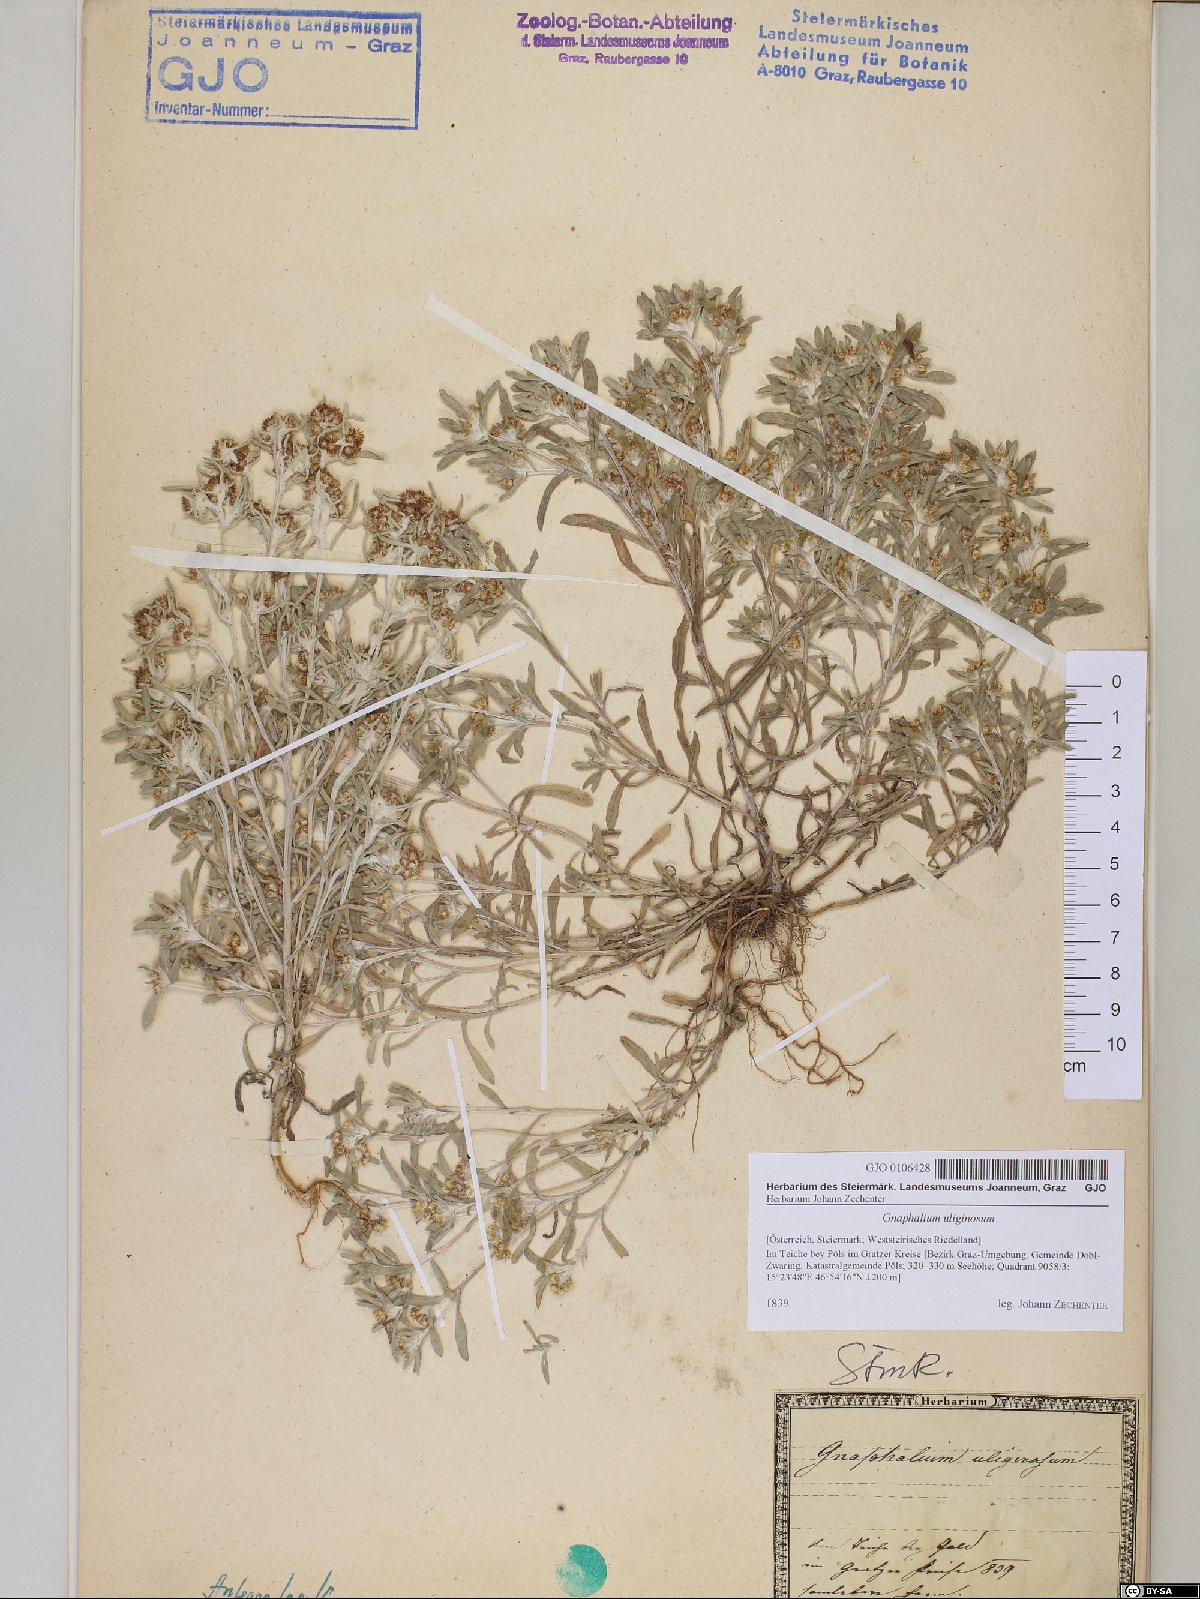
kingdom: Plantae
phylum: Tracheophyta
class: Magnoliopsida
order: Asterales
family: Asteraceae
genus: Gnaphalium
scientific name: Gnaphalium uliginosum
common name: Marsh cudweed
